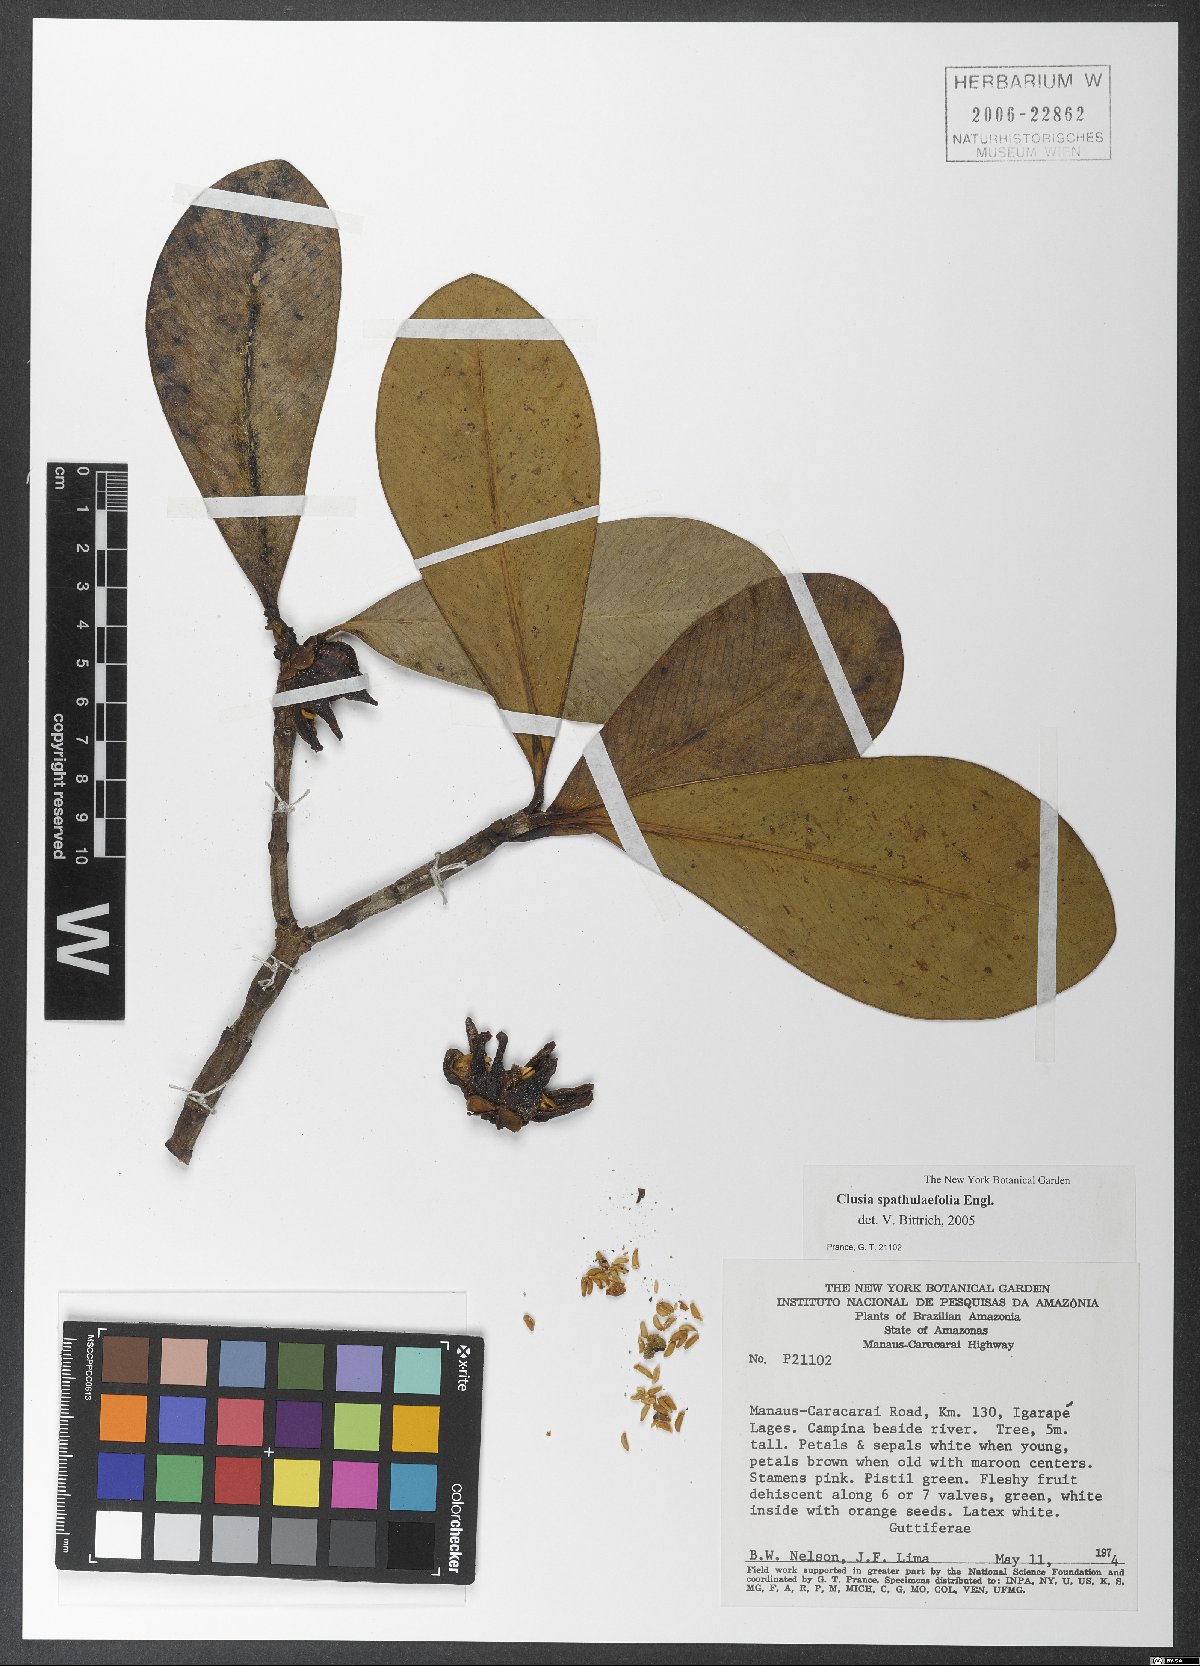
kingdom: Plantae
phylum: Tracheophyta
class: Magnoliopsida
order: Malpighiales
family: Clusiaceae
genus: Clusia
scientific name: Clusia spathulifolia
